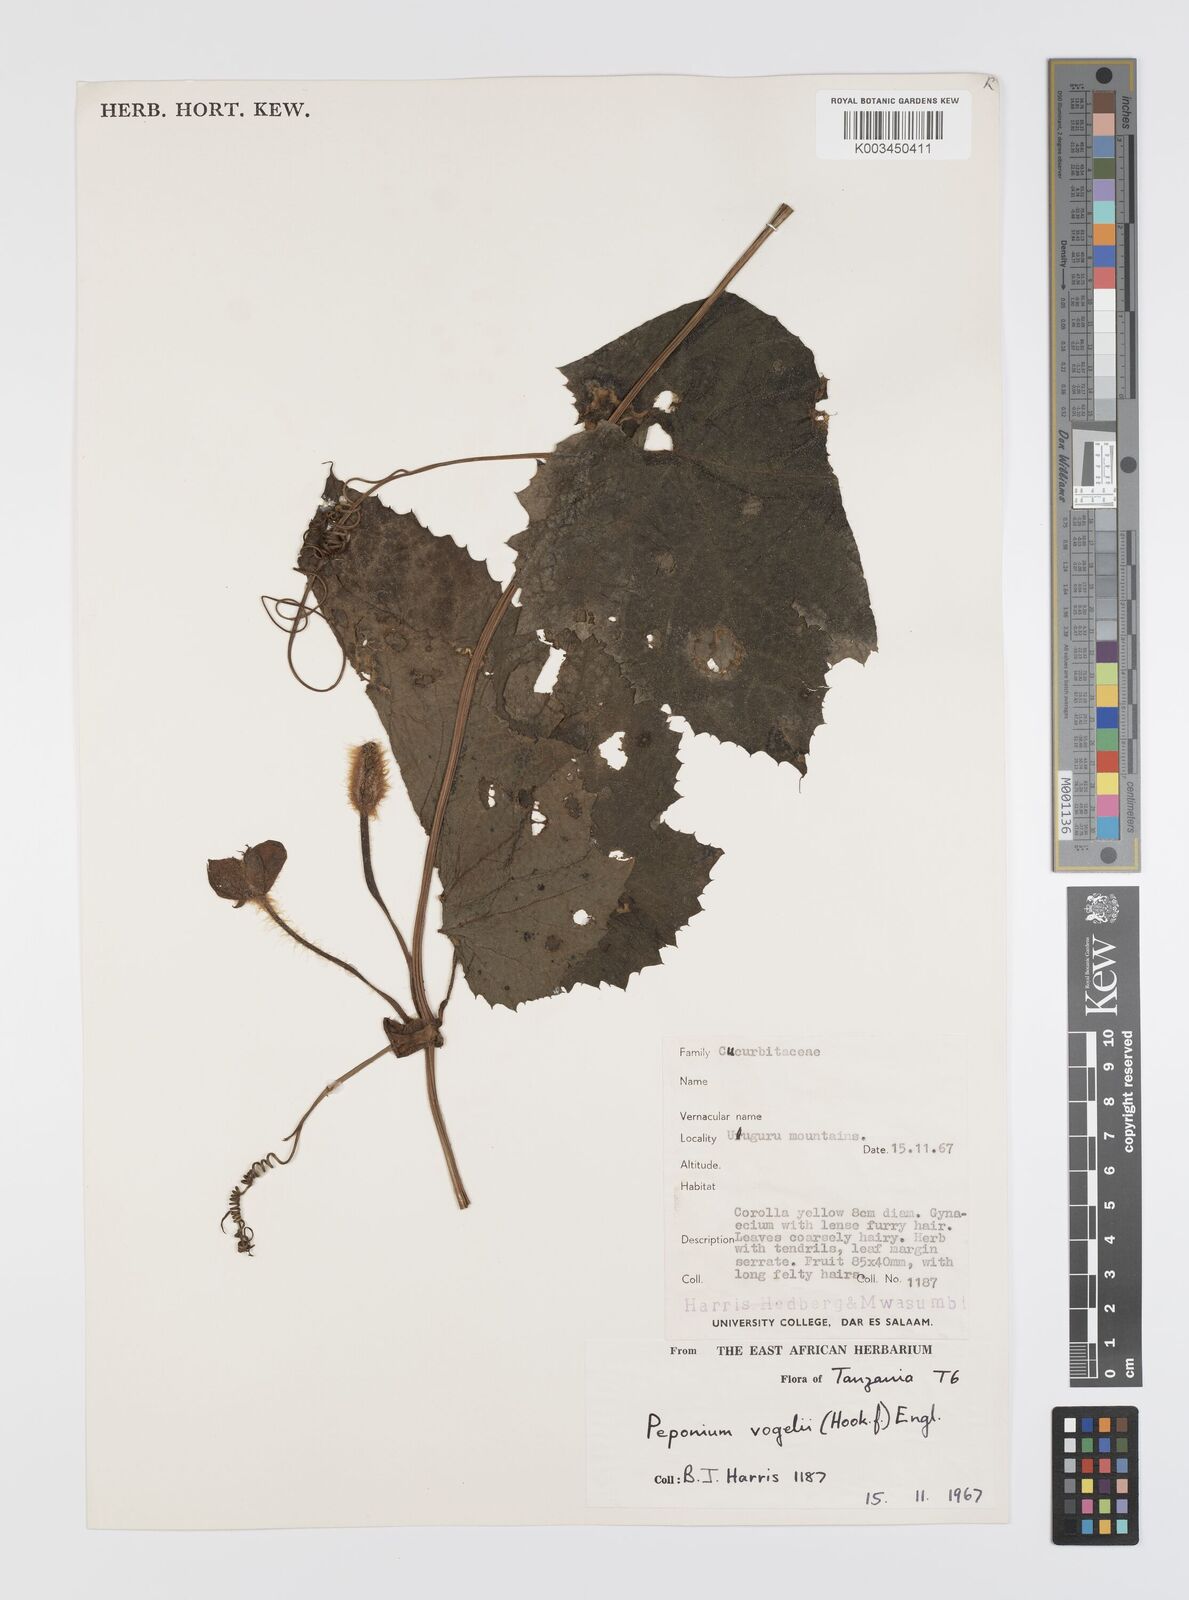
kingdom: Plantae
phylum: Tracheophyta
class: Magnoliopsida
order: Cucurbitales
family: Cucurbitaceae
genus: Peponium
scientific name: Peponium vogelii
